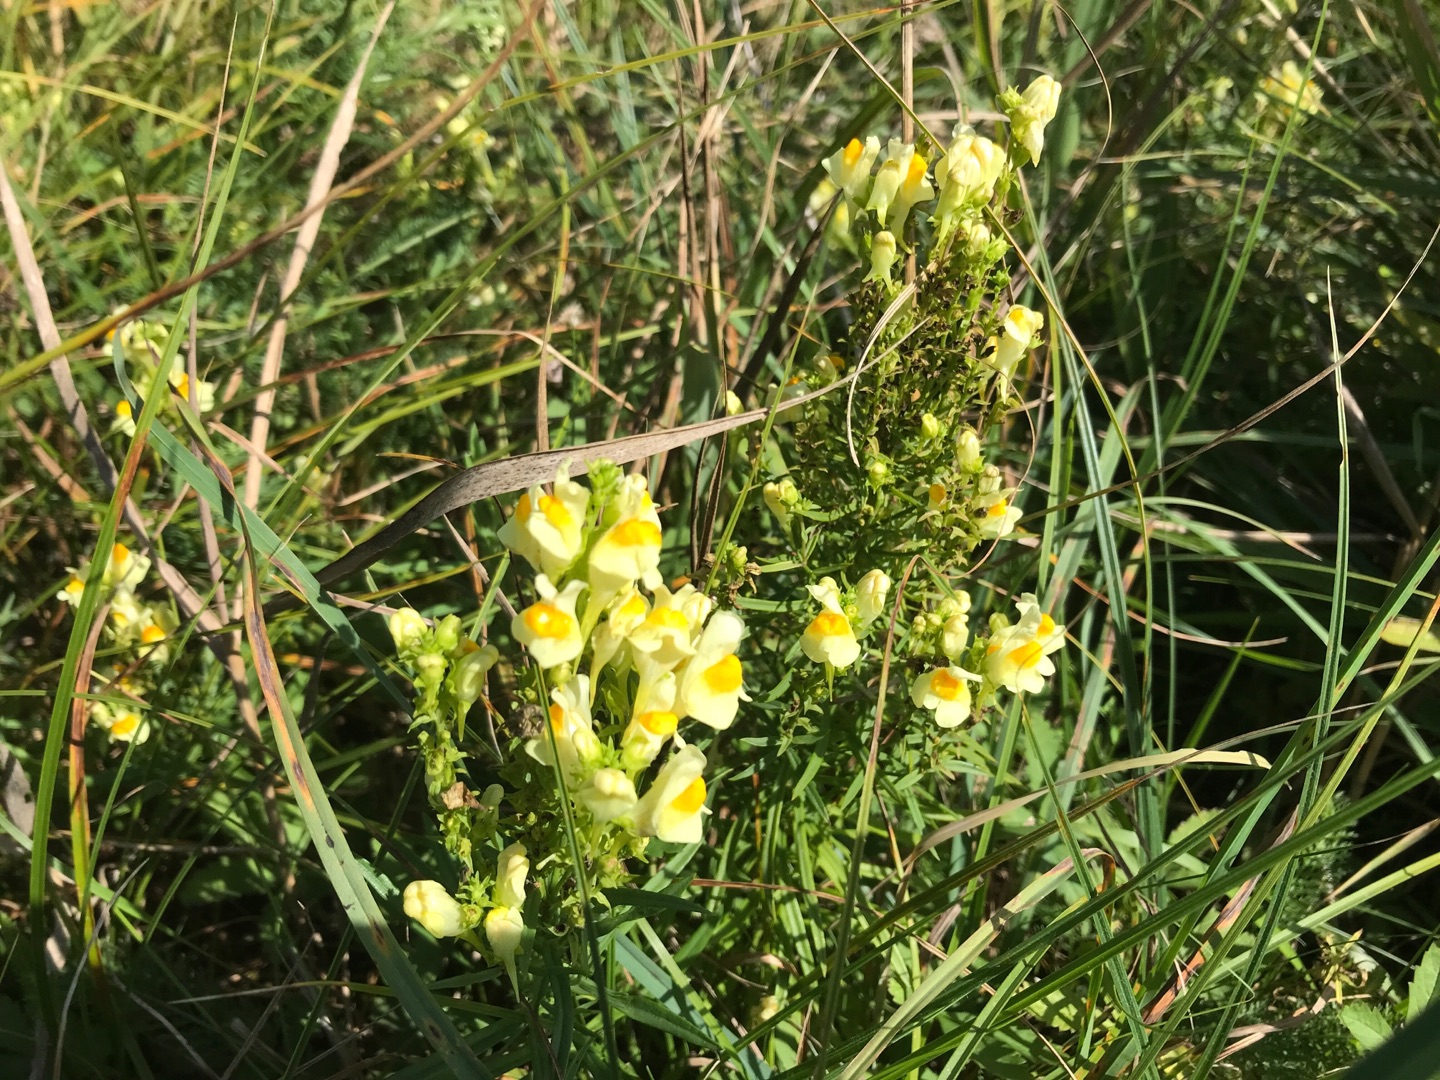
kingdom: Plantae
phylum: Tracheophyta
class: Magnoliopsida
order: Lamiales
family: Plantaginaceae
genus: Linaria
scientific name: Linaria vulgaris
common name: Almindelig torskemund
